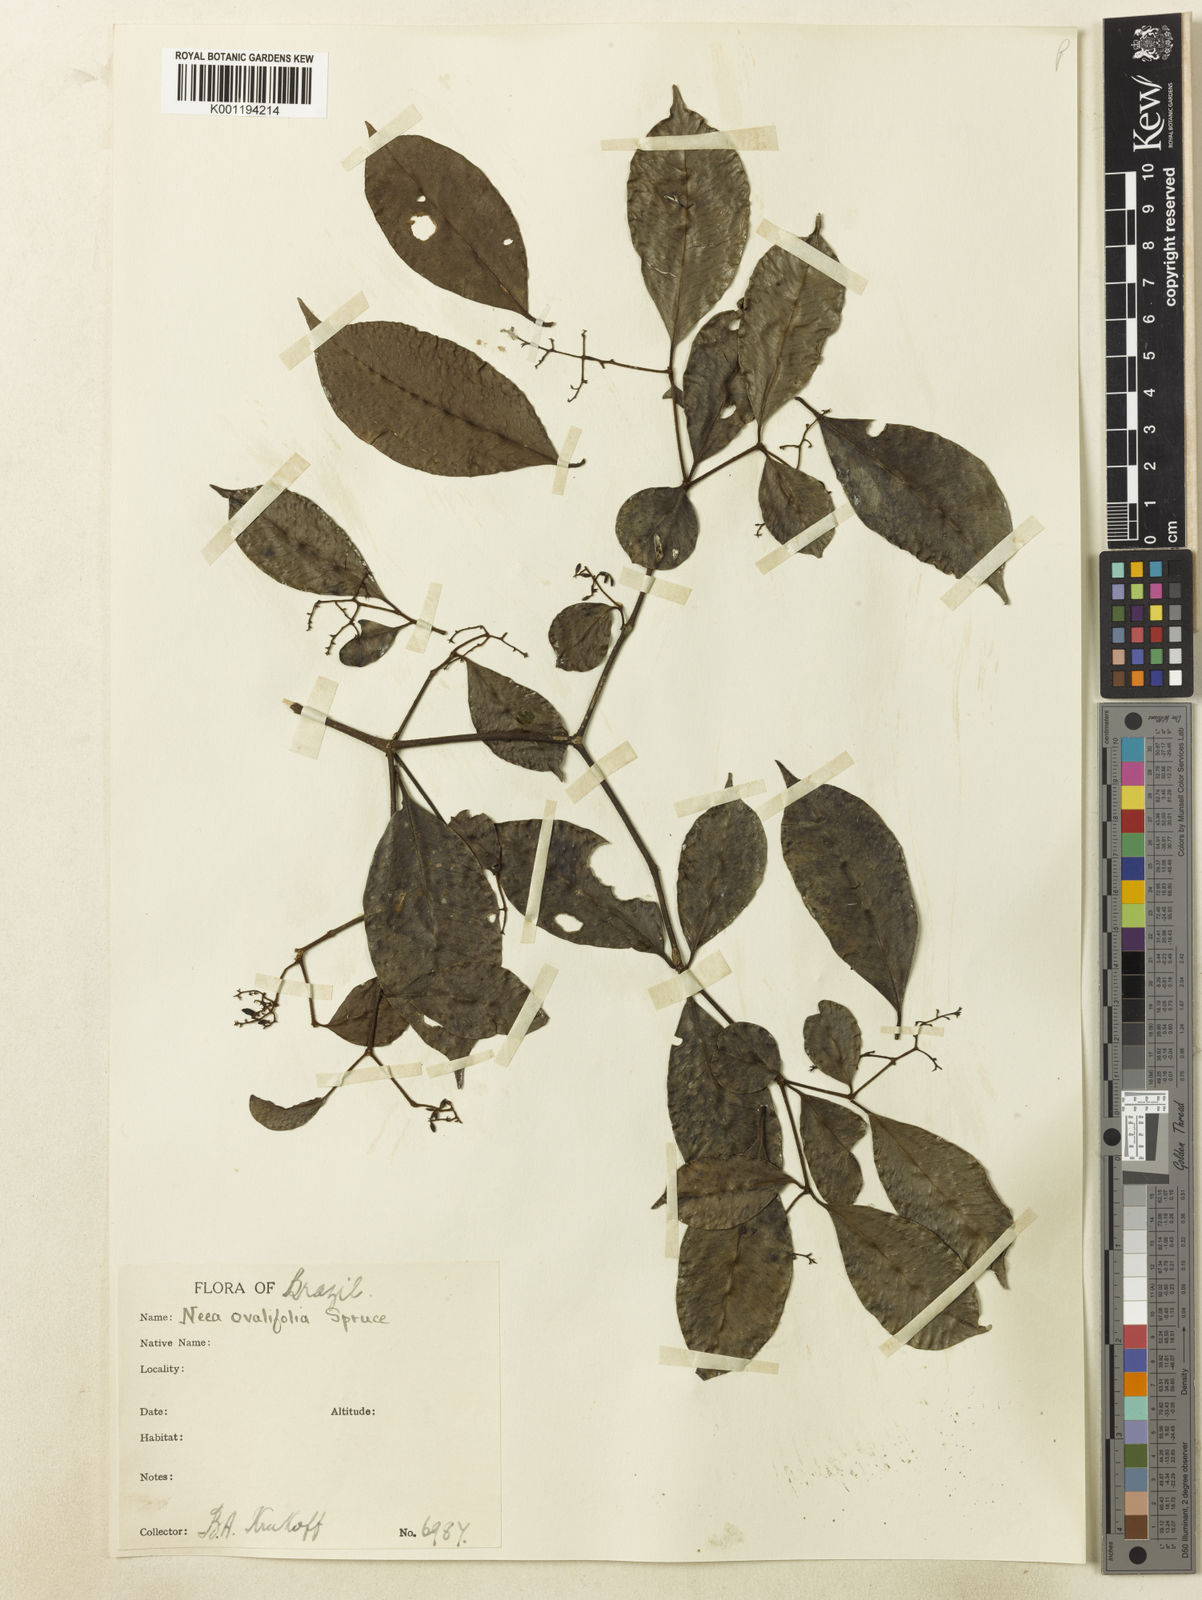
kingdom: Plantae
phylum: Tracheophyta
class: Magnoliopsida
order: Caryophyllales
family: Nyctaginaceae
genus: Neea
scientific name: Neea ovalifolia
